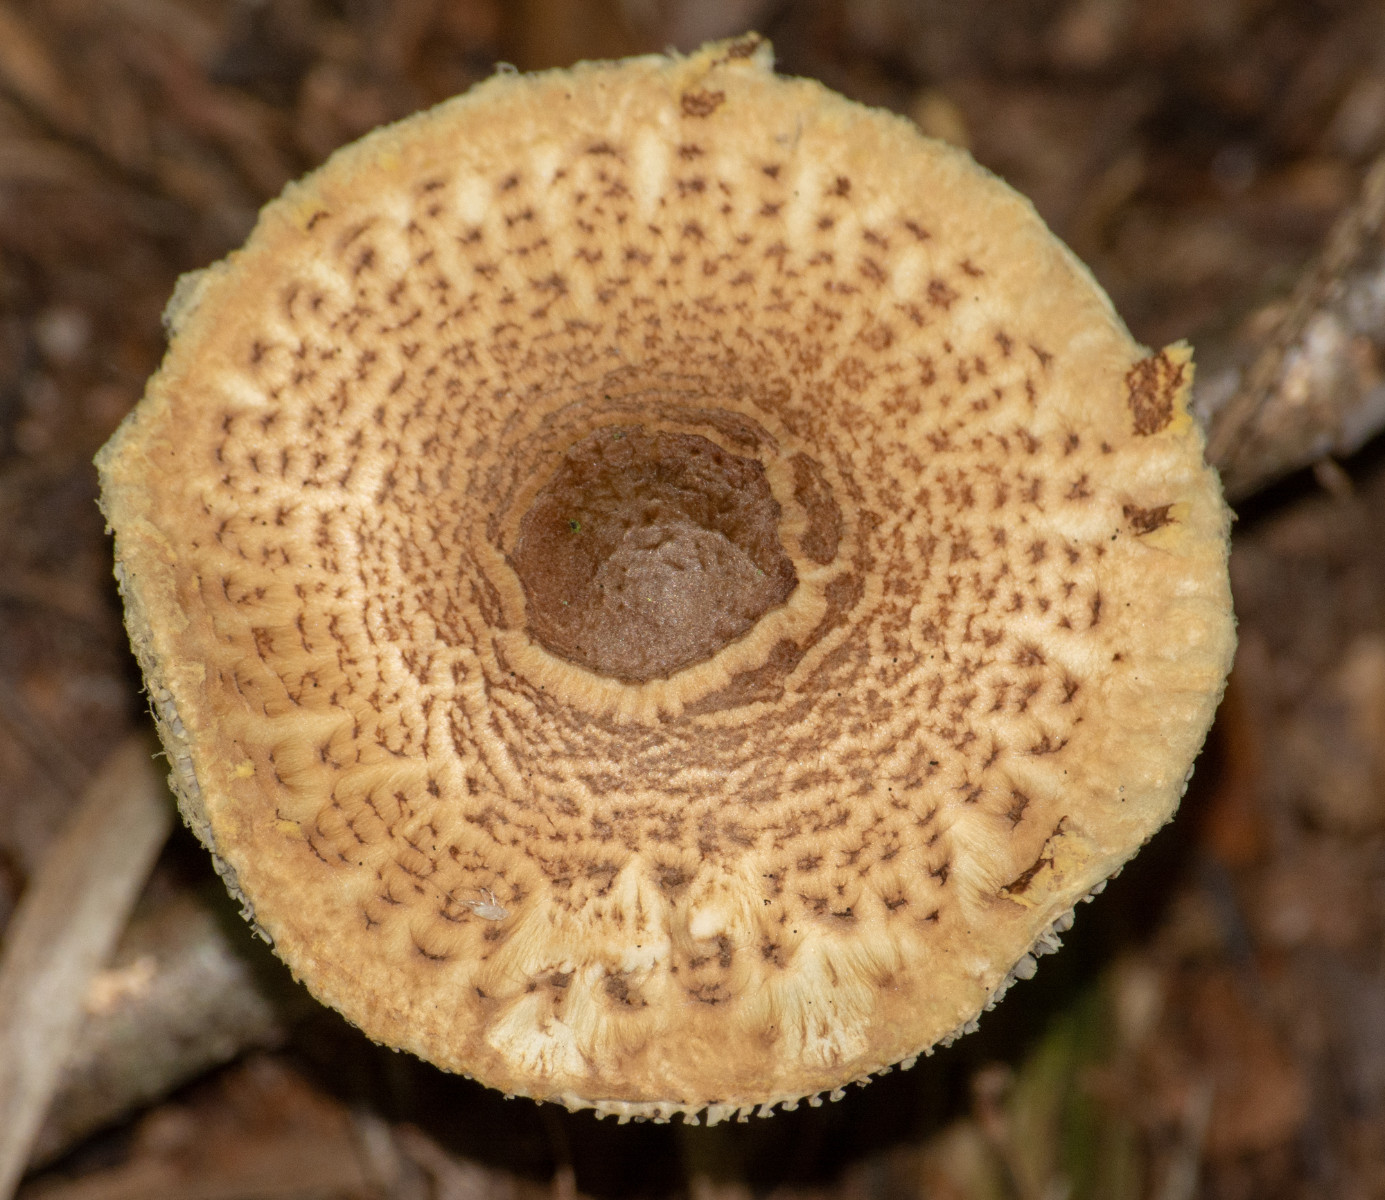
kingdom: Fungi
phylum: Basidiomycota
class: Agaricomycetes
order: Agaricales
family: Agaricaceae
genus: Lepiota
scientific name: Lepiota magnispora
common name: gulfnugget parasolhat
